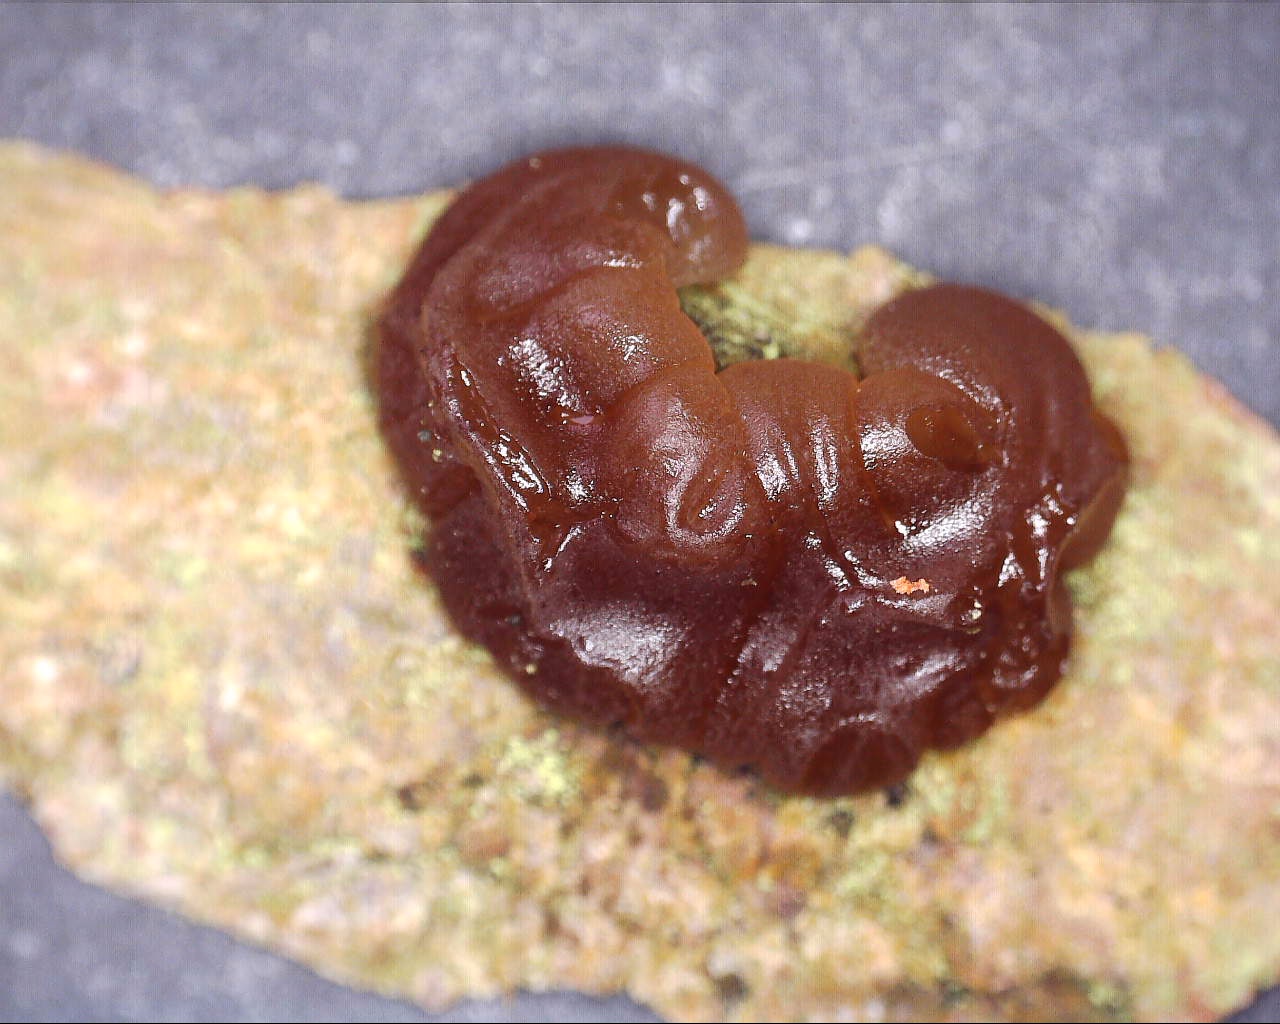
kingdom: Fungi
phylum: Basidiomycota
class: Agaricomycetes
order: Auriculariales
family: Auriculariaceae
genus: Exidia
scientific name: Exidia saccharina
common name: kandis-bævretop
